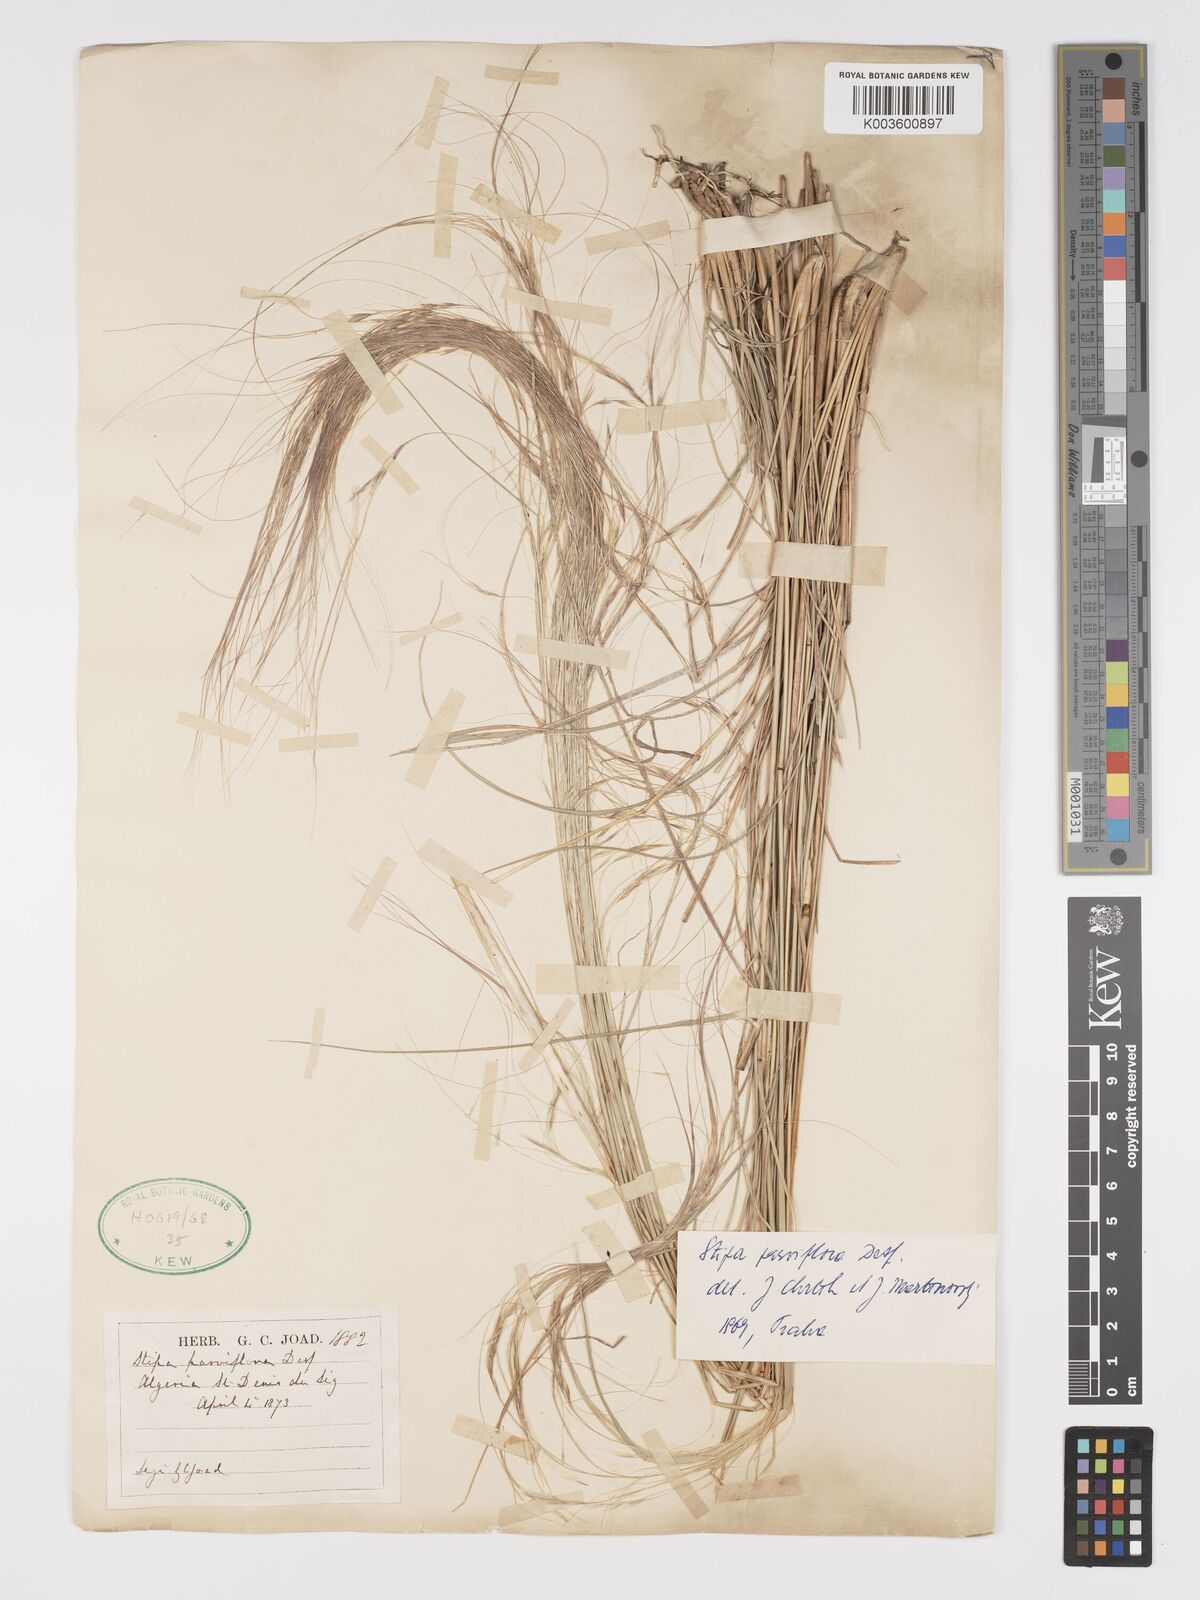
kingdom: Plantae
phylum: Tracheophyta
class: Liliopsida
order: Poales
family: Poaceae
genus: Achnatherum
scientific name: Achnatherum parviflorum
